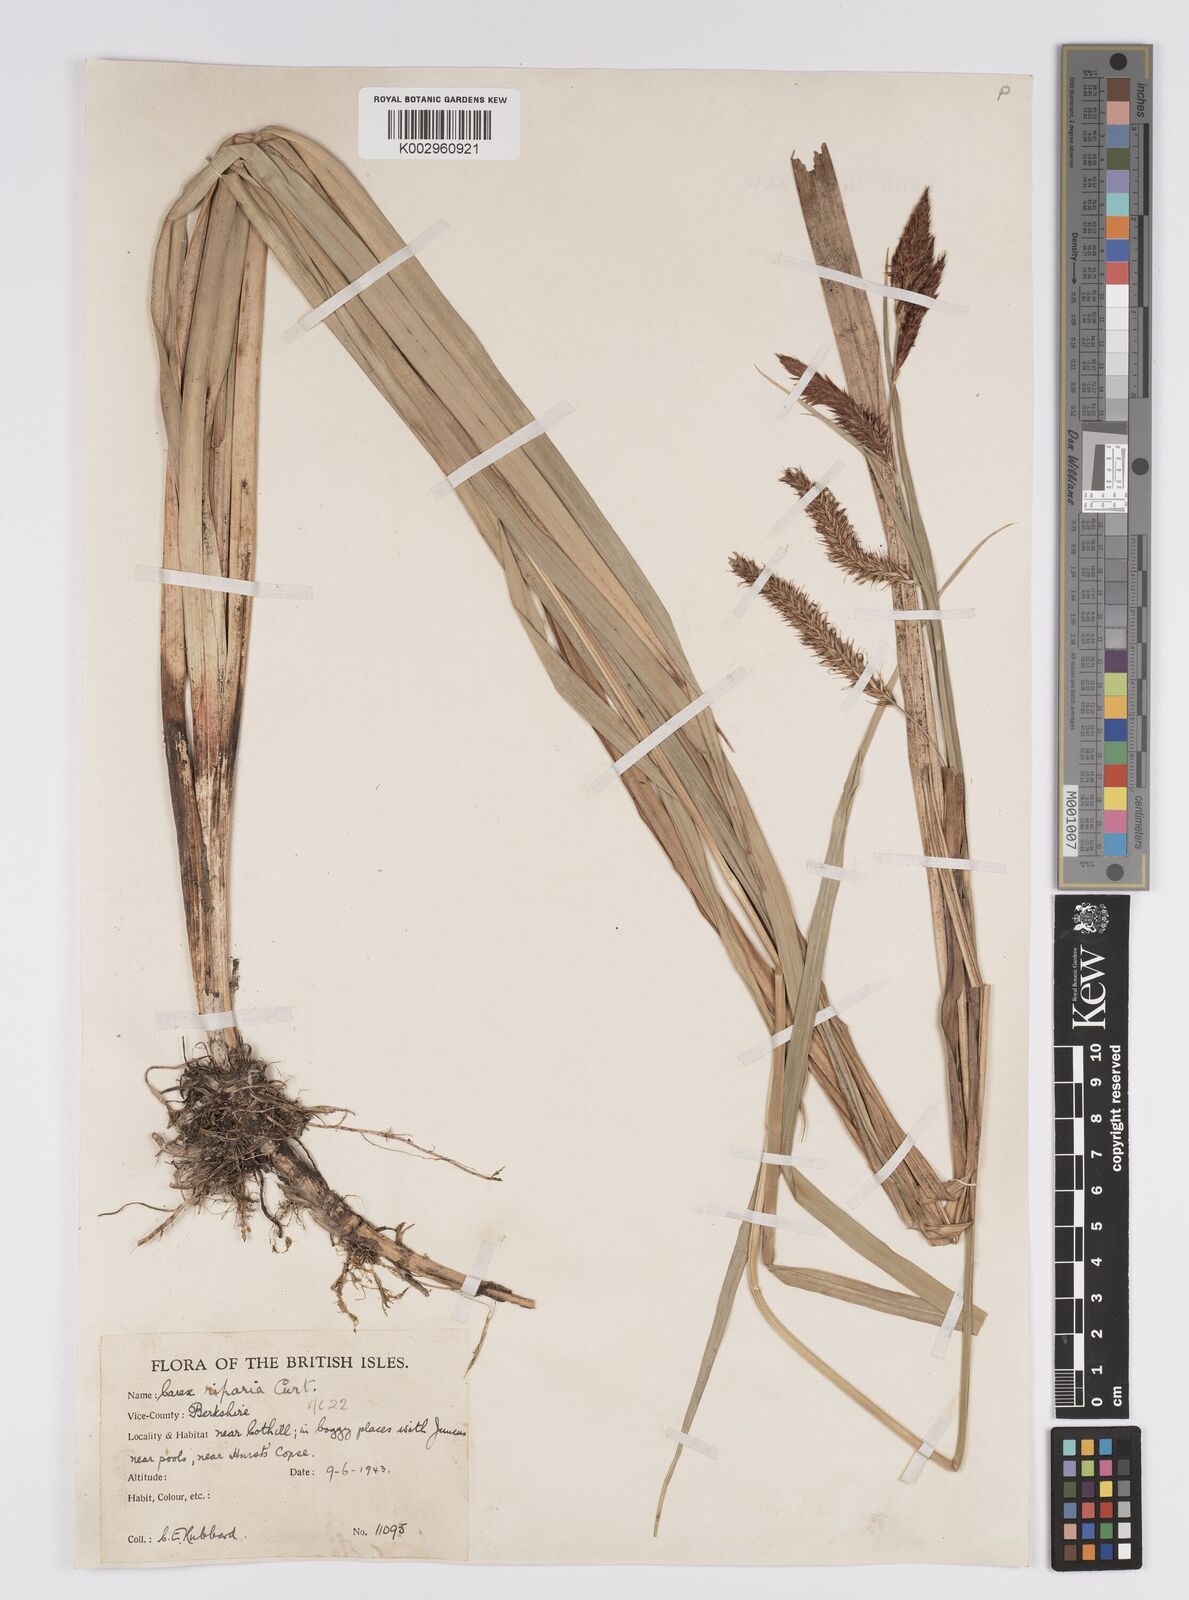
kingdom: Plantae
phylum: Tracheophyta
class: Liliopsida
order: Poales
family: Cyperaceae
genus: Carex
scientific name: Carex riparia
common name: Greater pond-sedge
